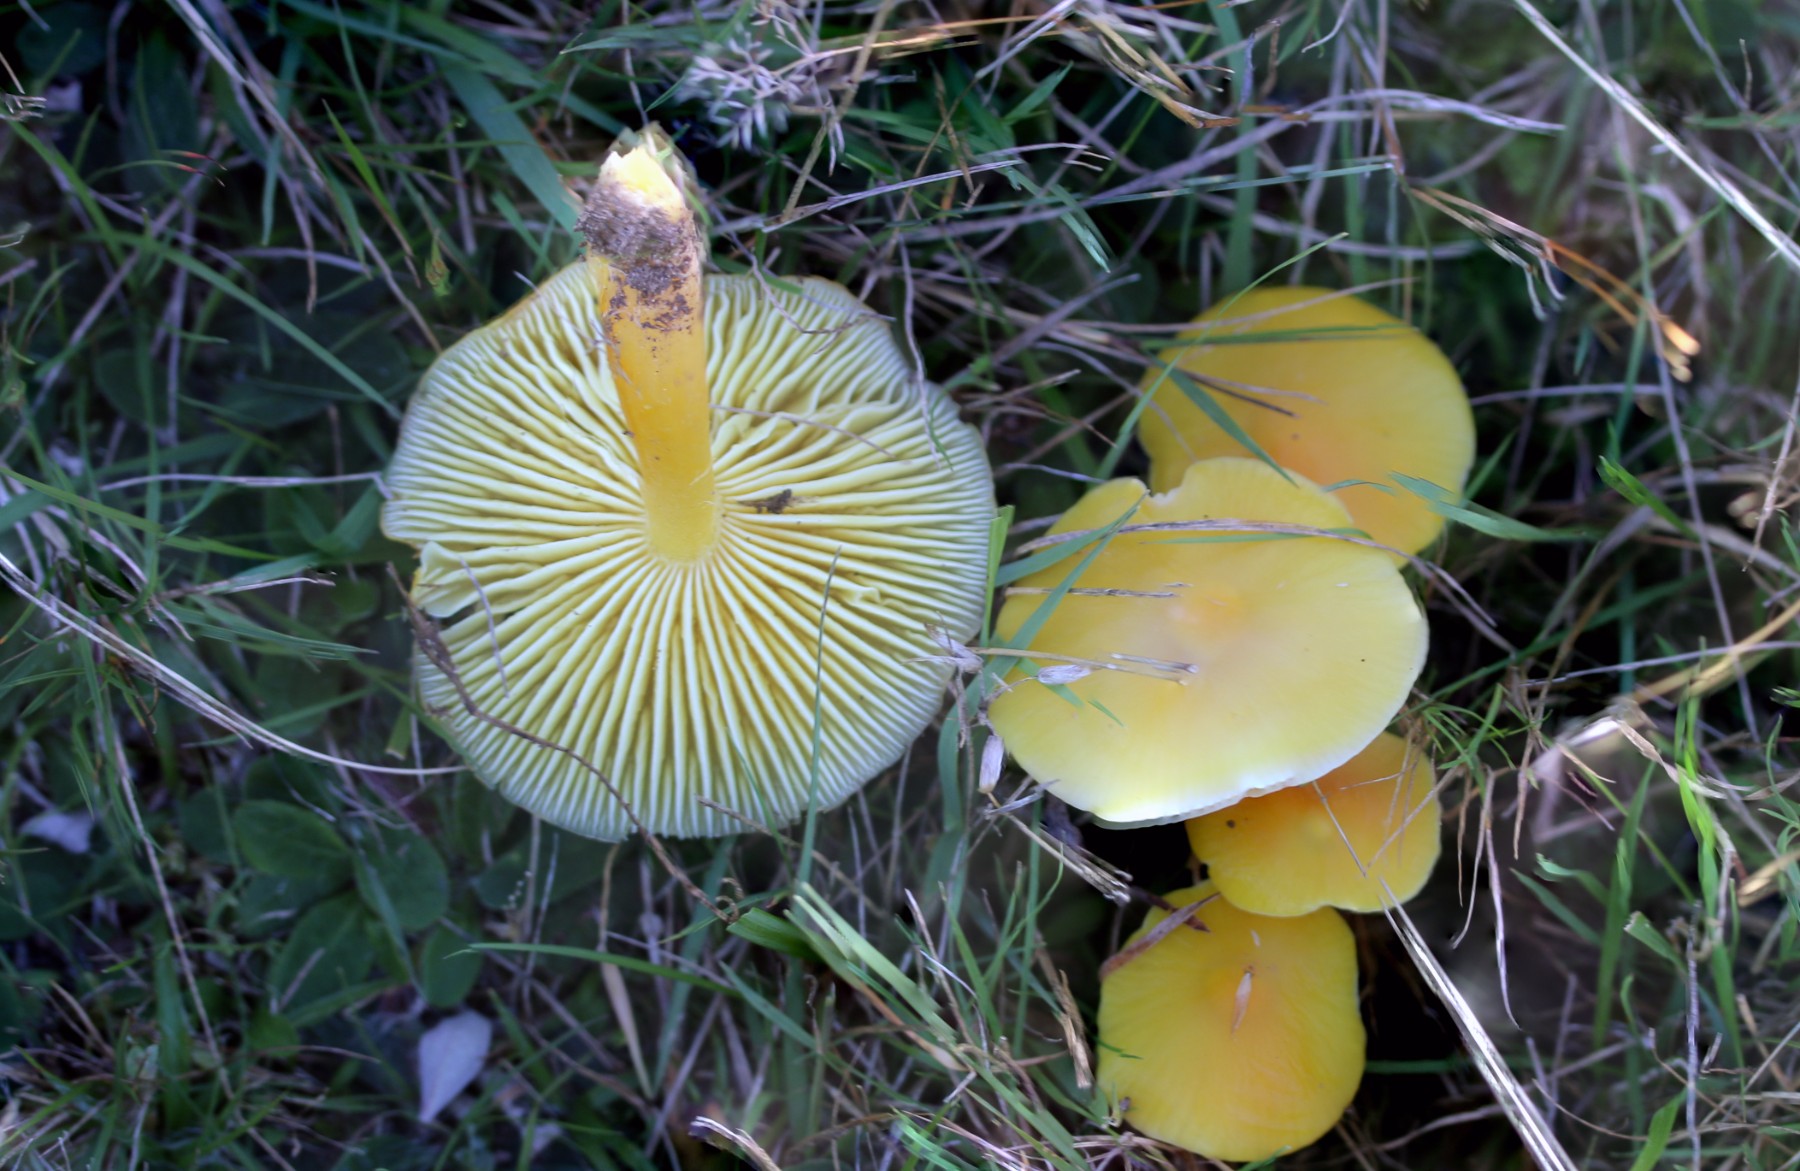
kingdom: Fungi
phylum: Basidiomycota
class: Agaricomycetes
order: Agaricales
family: Hygrophoraceae
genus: Hygrocybe
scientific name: Hygrocybe chlorophana
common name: gul vokshat
